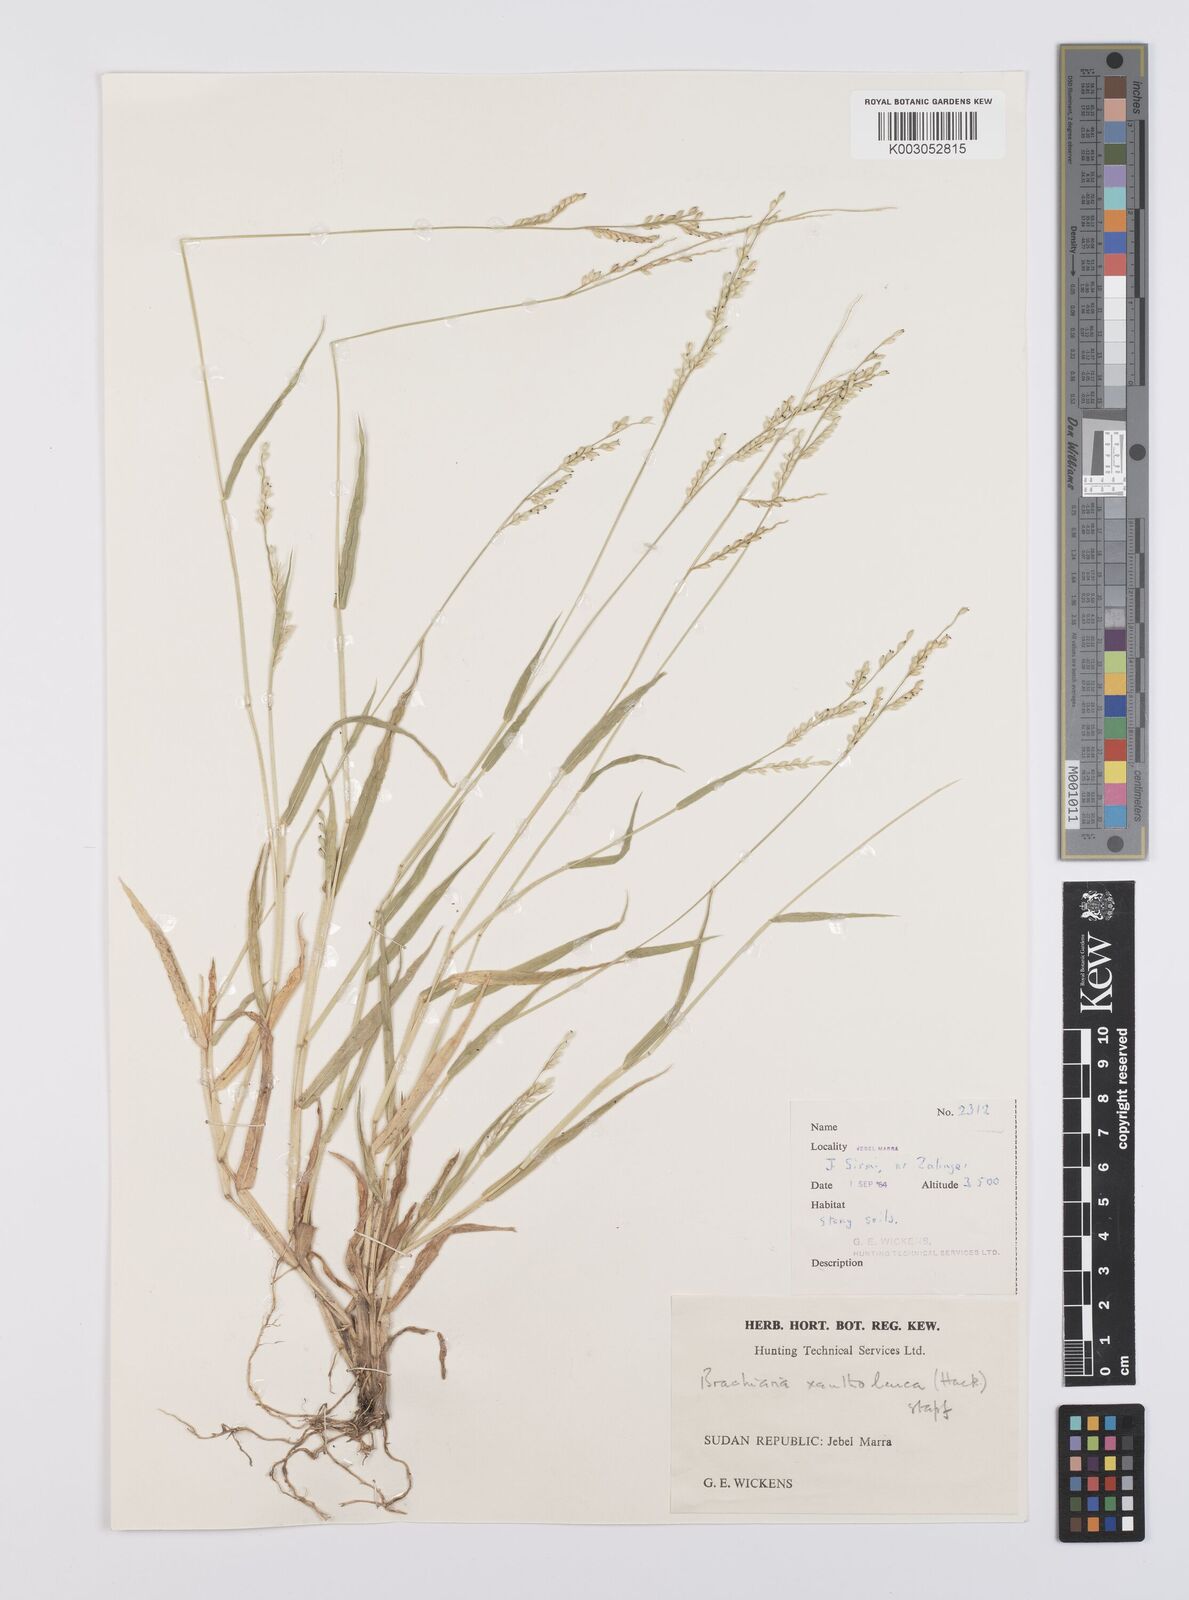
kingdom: Plantae
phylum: Tracheophyta
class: Liliopsida
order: Poales
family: Poaceae
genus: Urochloa
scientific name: Urochloa xantholeuca
